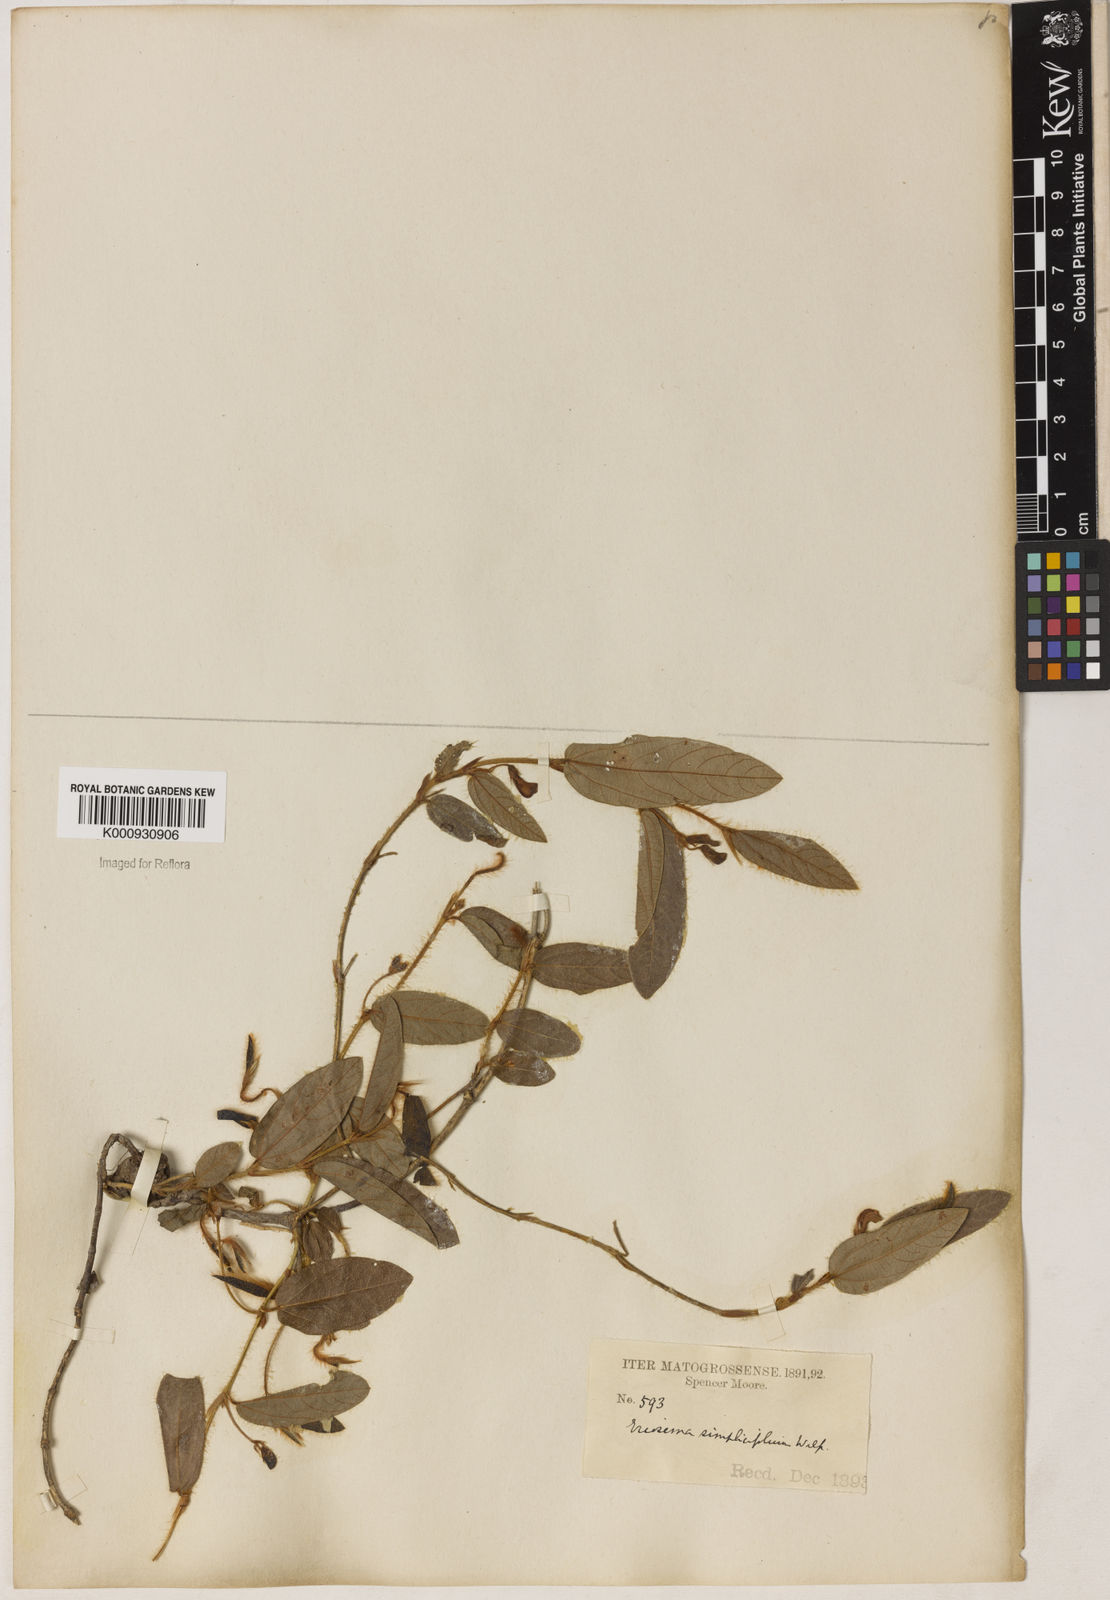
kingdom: Plantae
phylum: Tracheophyta
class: Magnoliopsida
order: Fabales
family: Fabaceae
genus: Eriosema
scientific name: Eriosema simplicifolium
